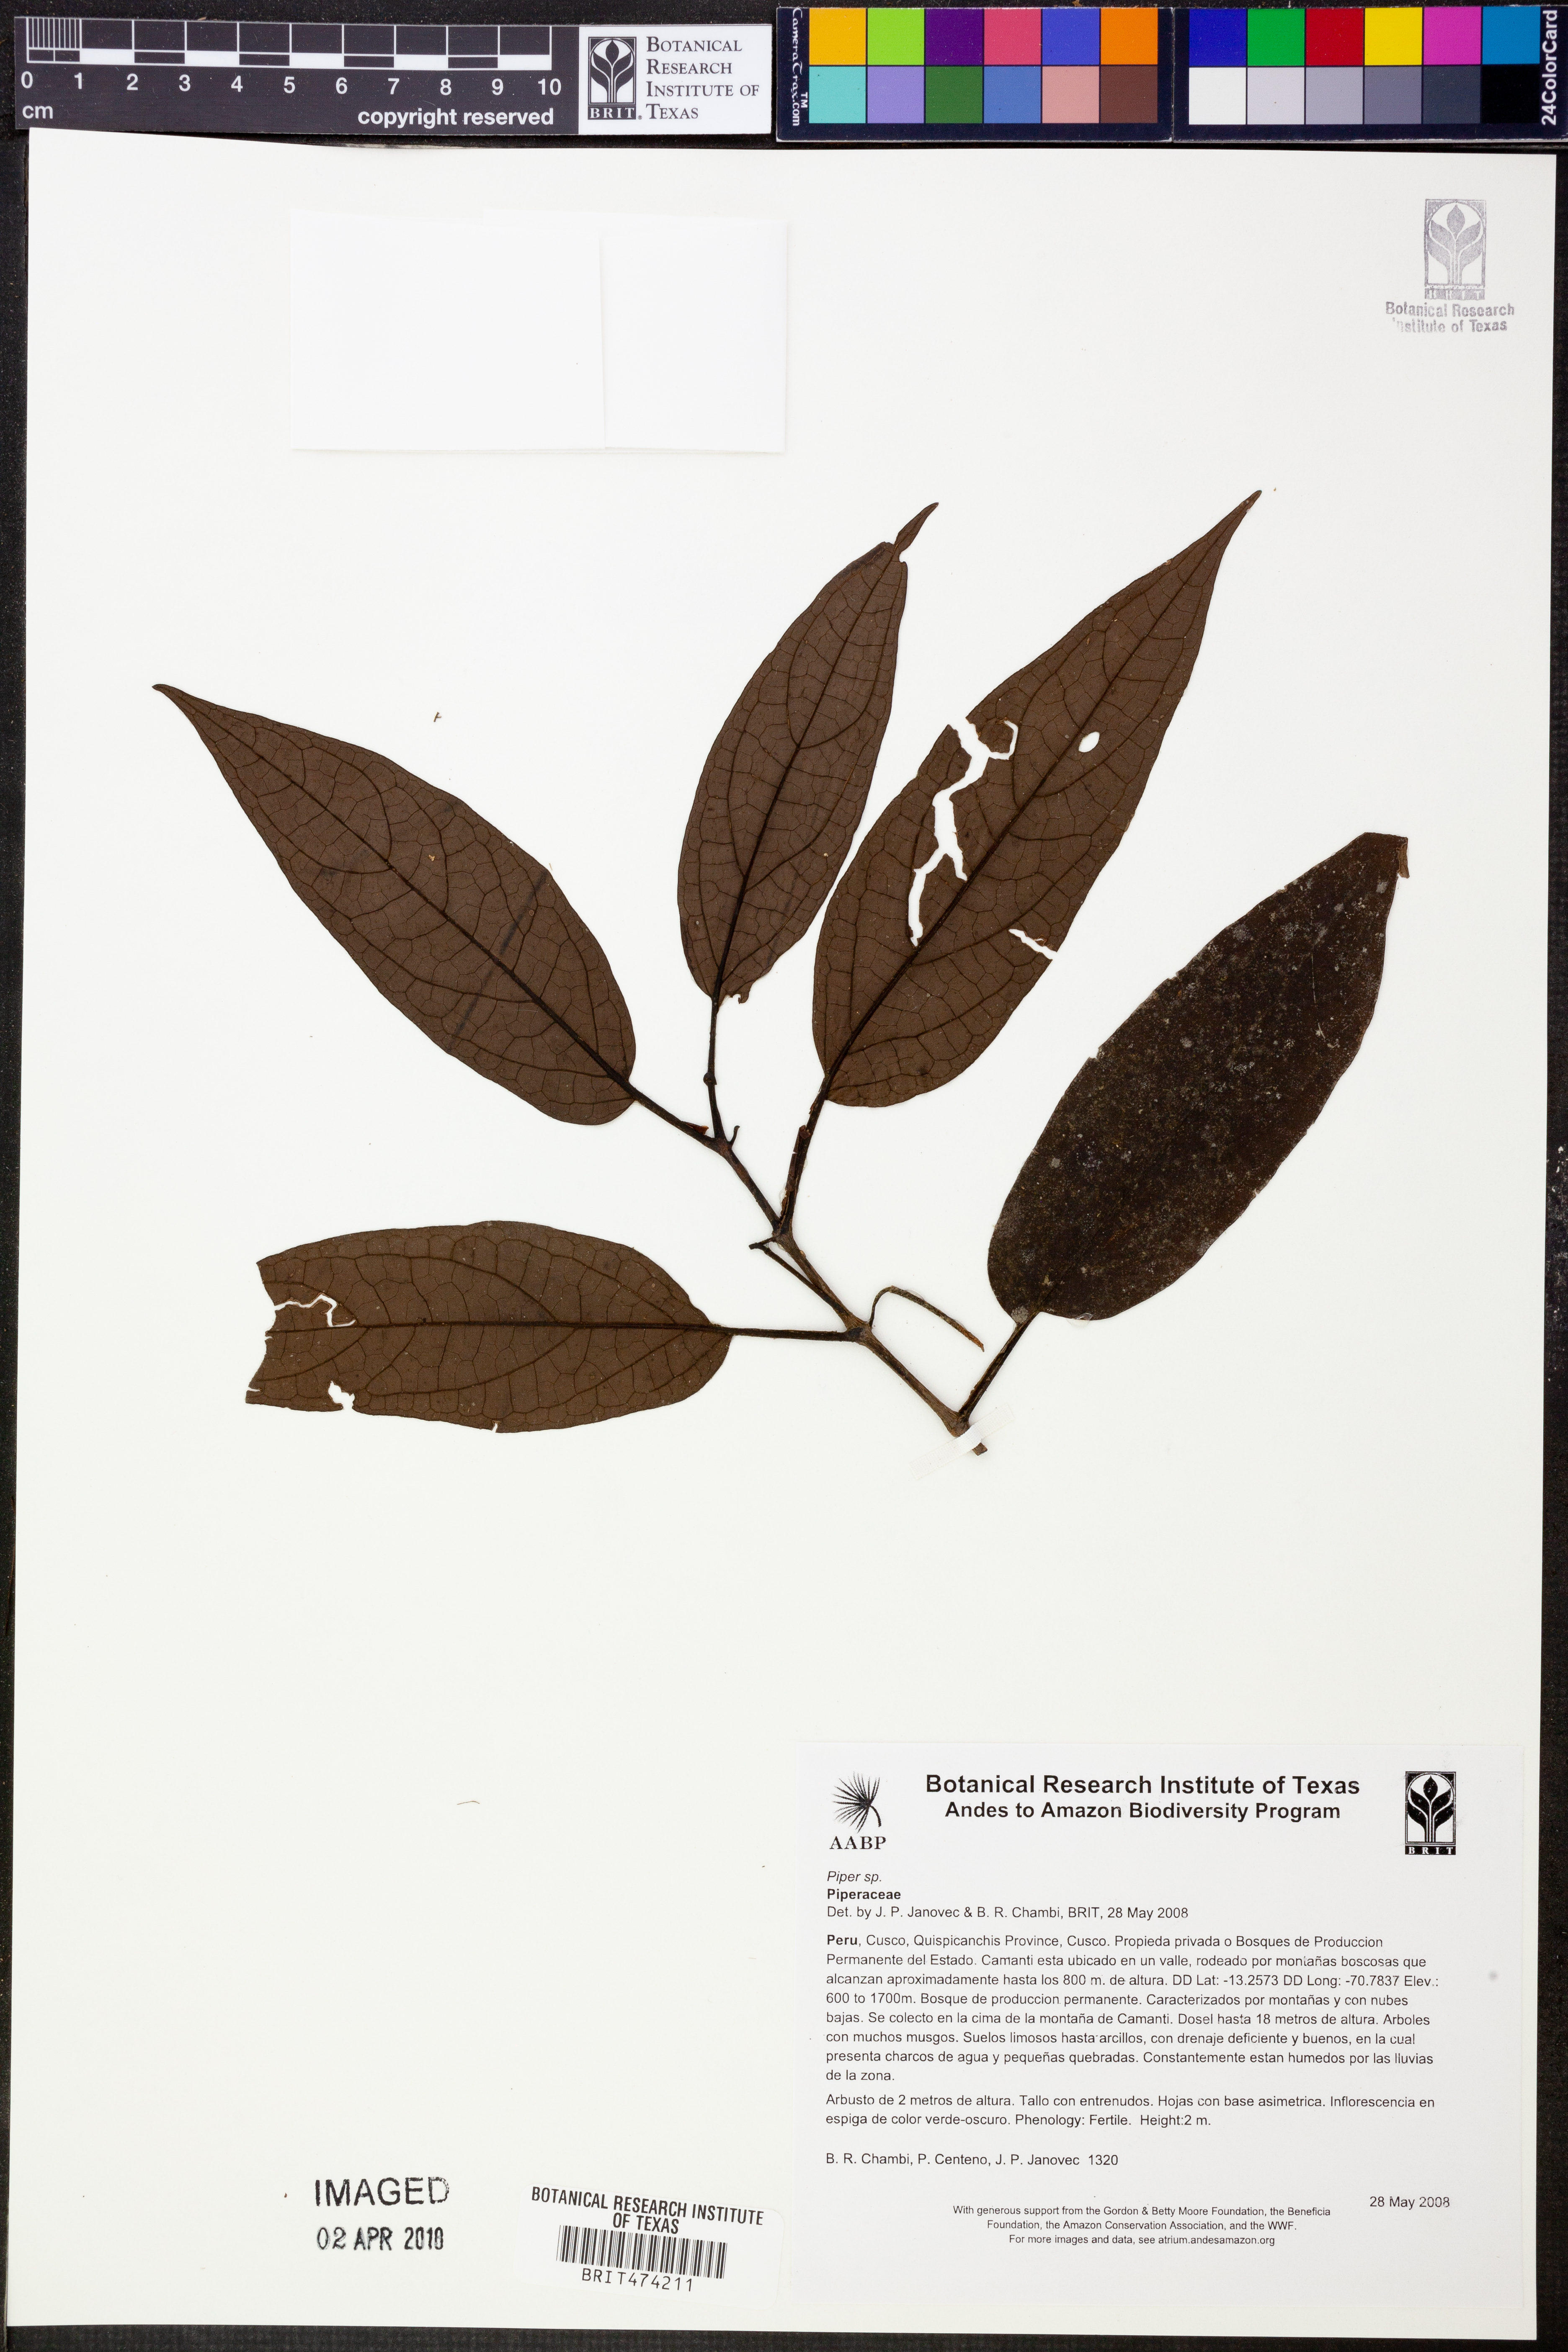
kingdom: Plantae
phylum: Tracheophyta
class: Magnoliopsida
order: Piperales
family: Piperaceae
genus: Piper
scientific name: Piper
